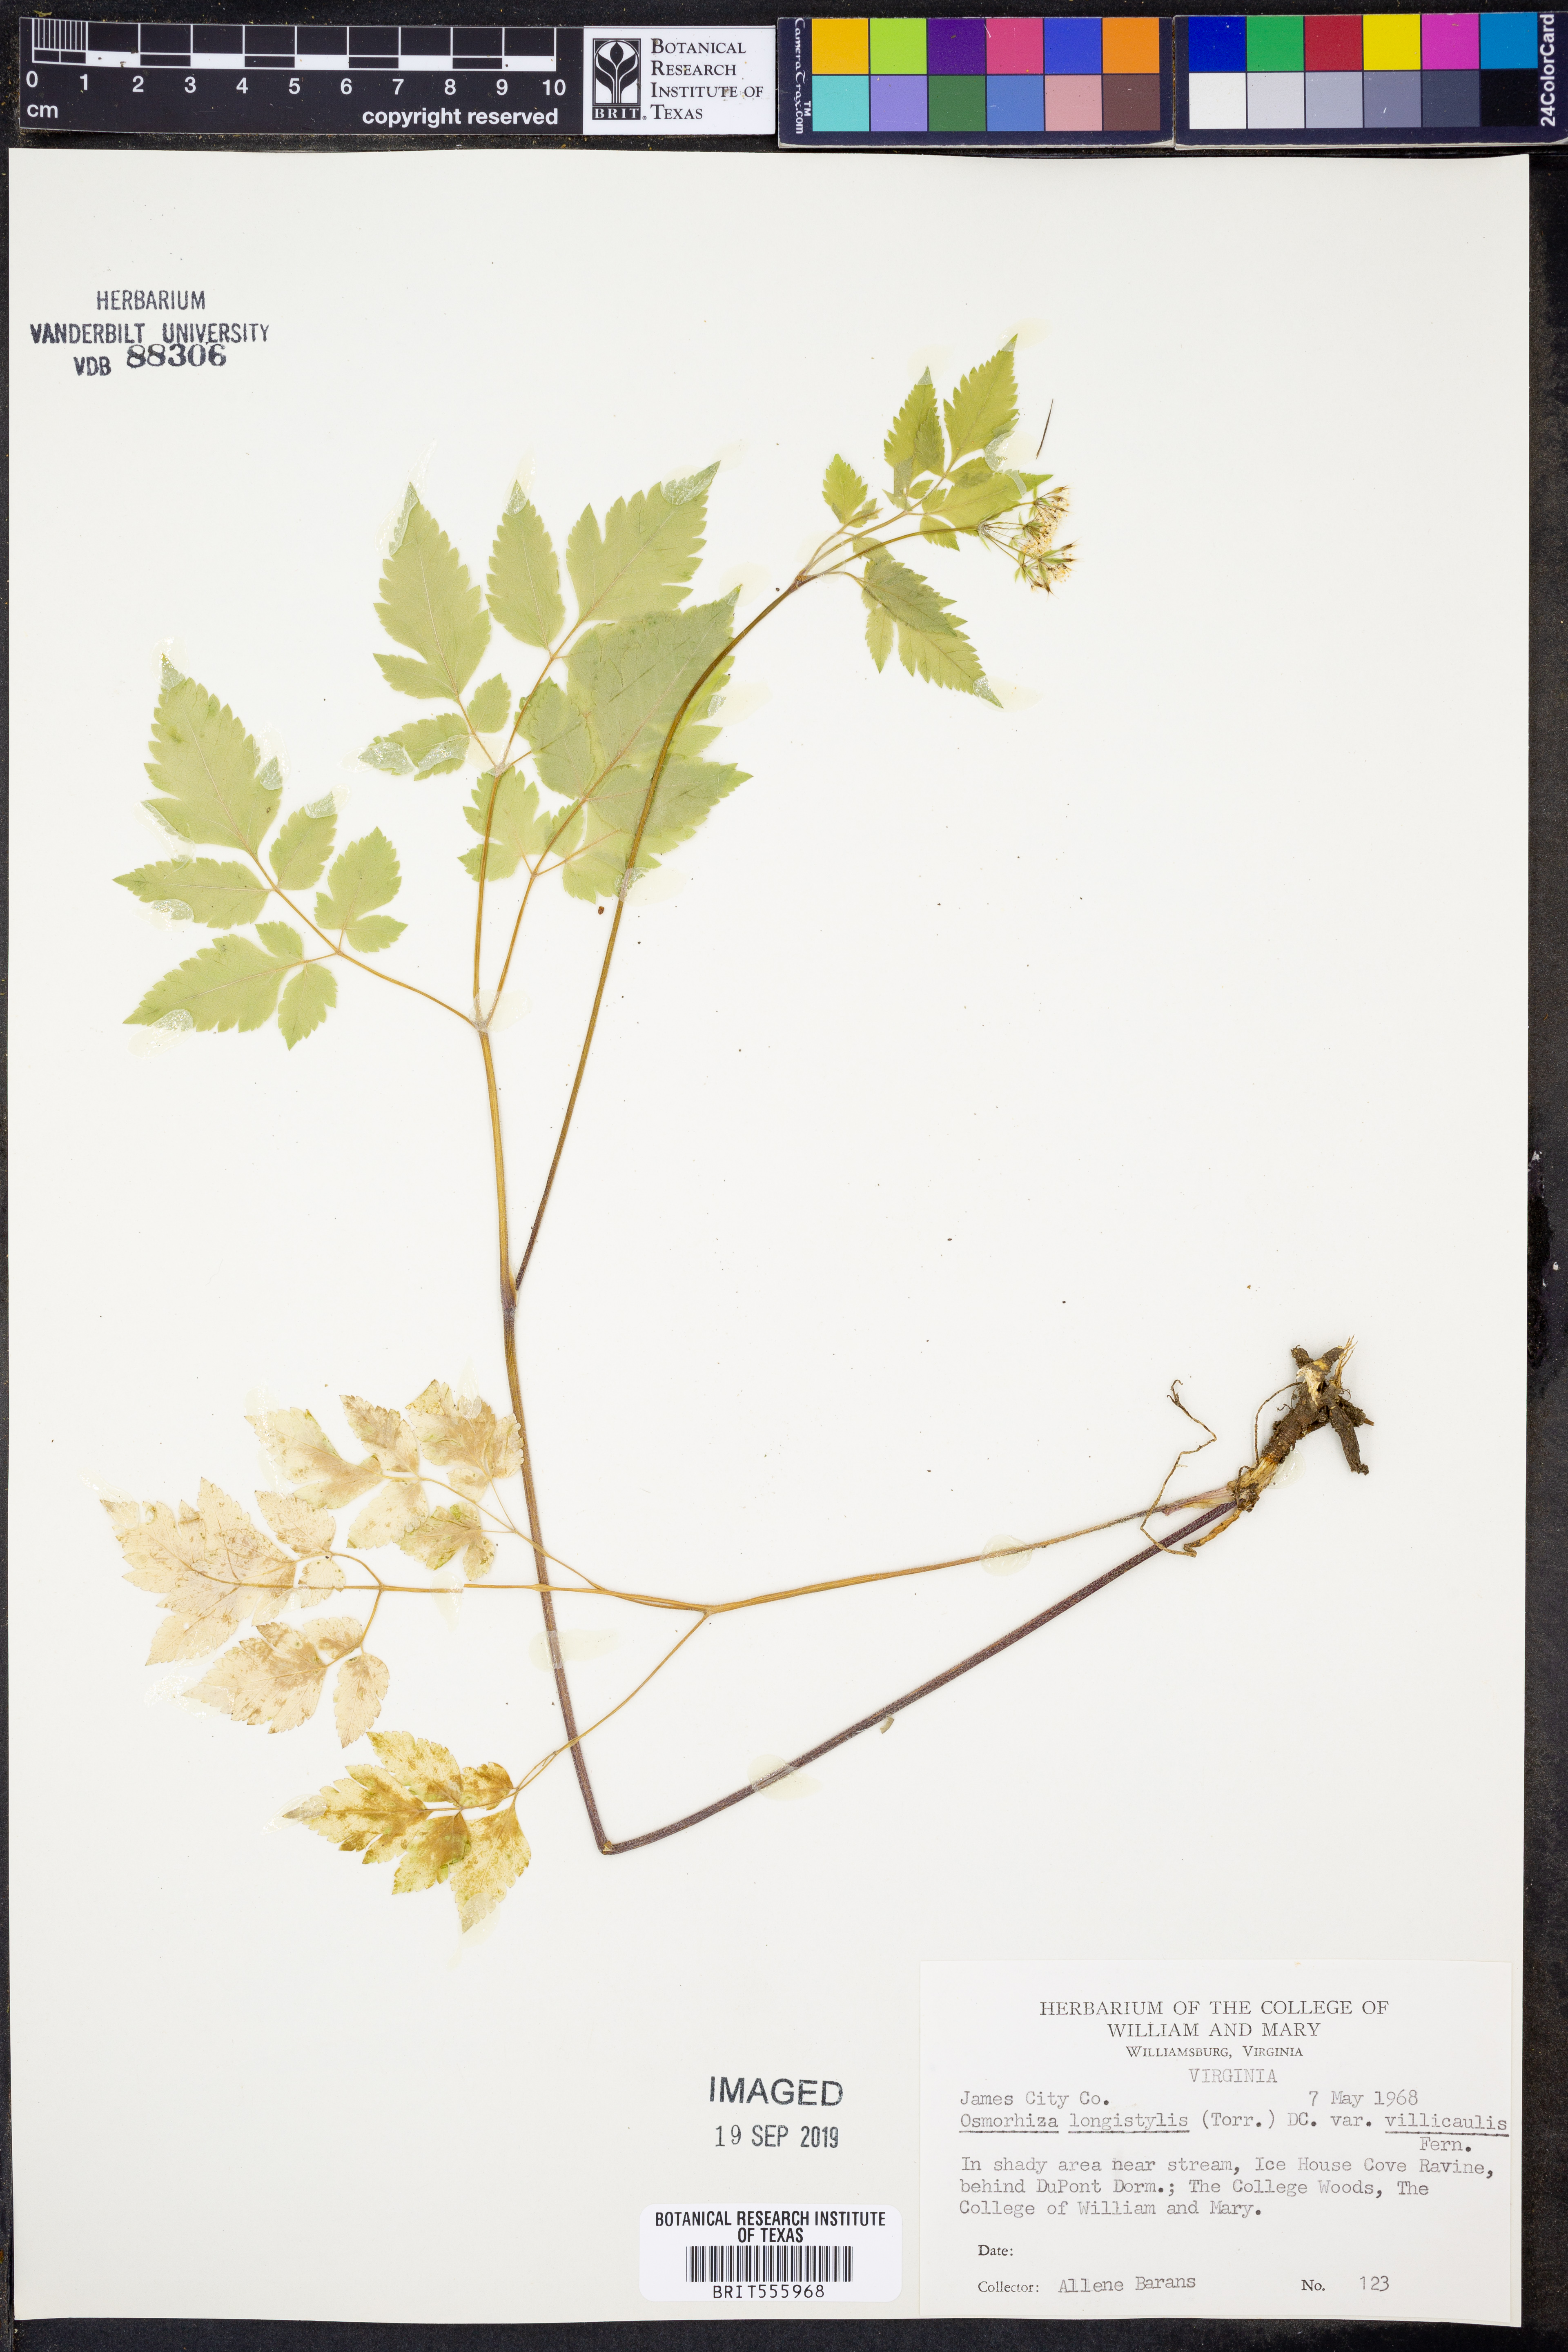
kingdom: Plantae
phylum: Tracheophyta
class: Magnoliopsida
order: Apiales
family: Apiaceae
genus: Osmorhiza
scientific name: Osmorhiza longistylis
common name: Smooth sweet cicely
